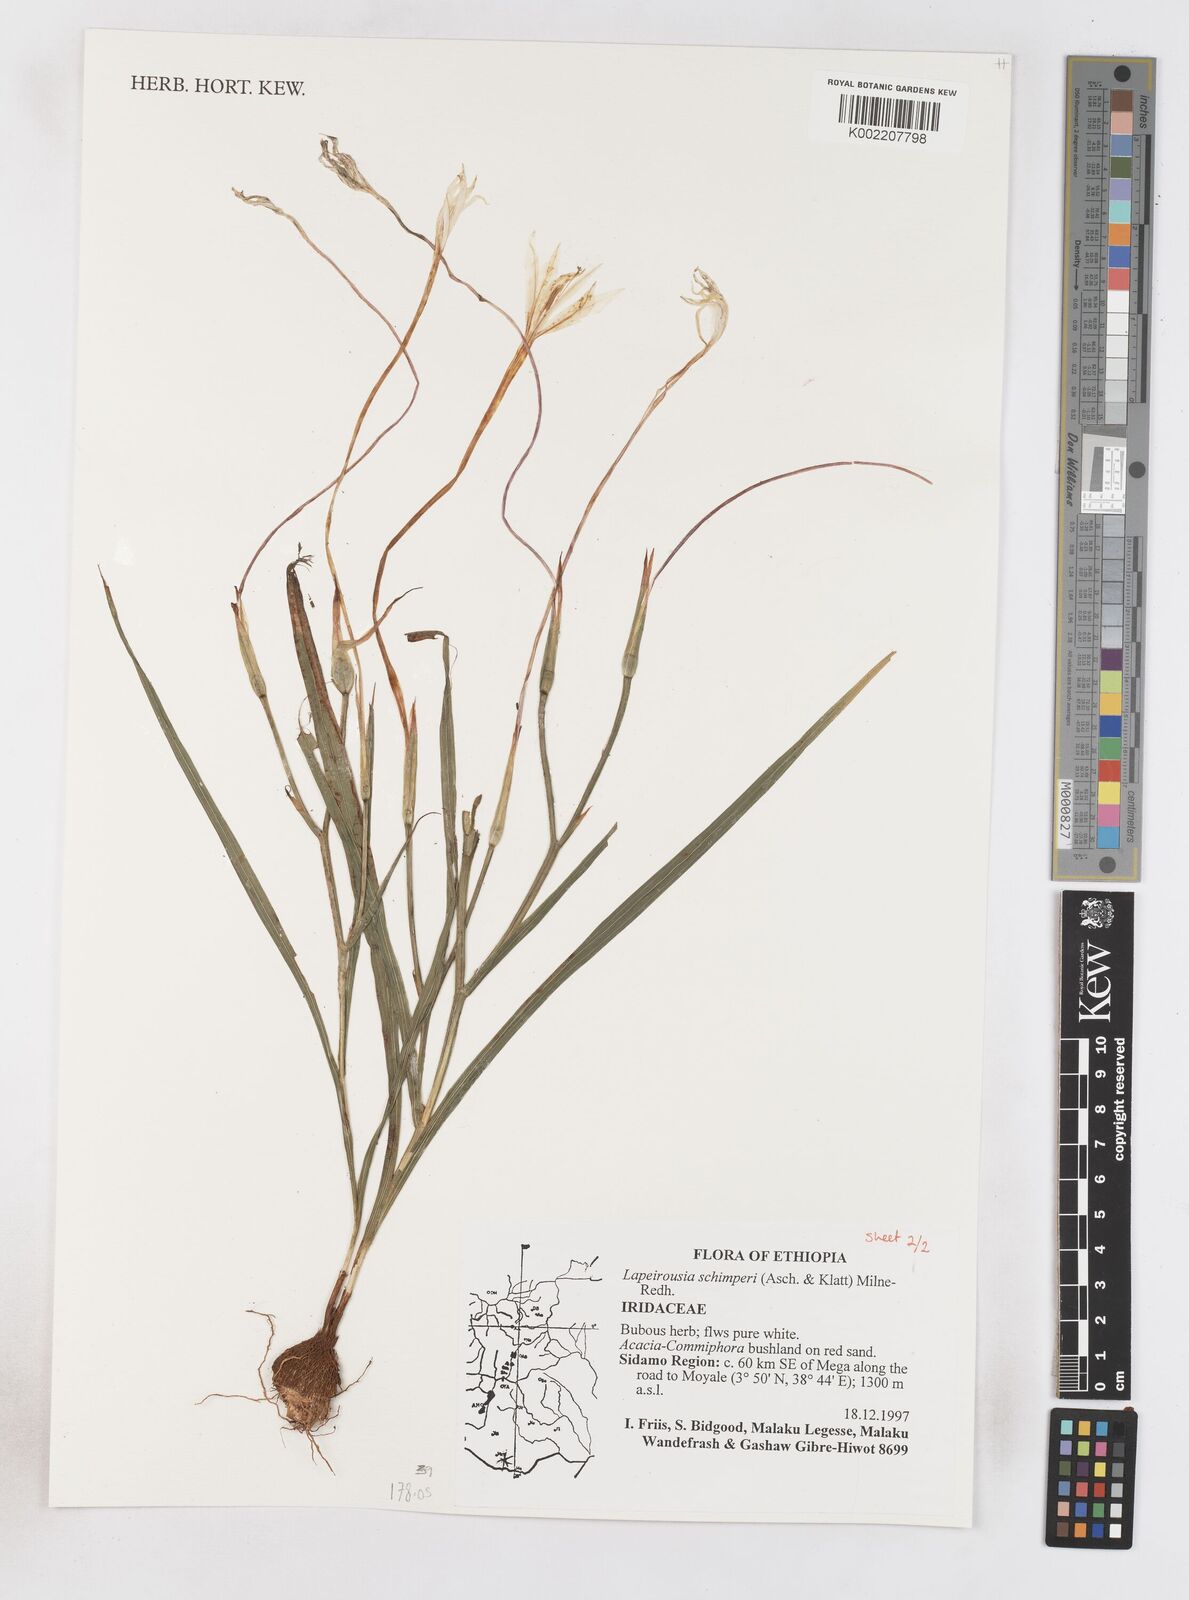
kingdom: Plantae
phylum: Tracheophyta
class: Liliopsida
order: Asparagales
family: Iridaceae
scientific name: Iridaceae
